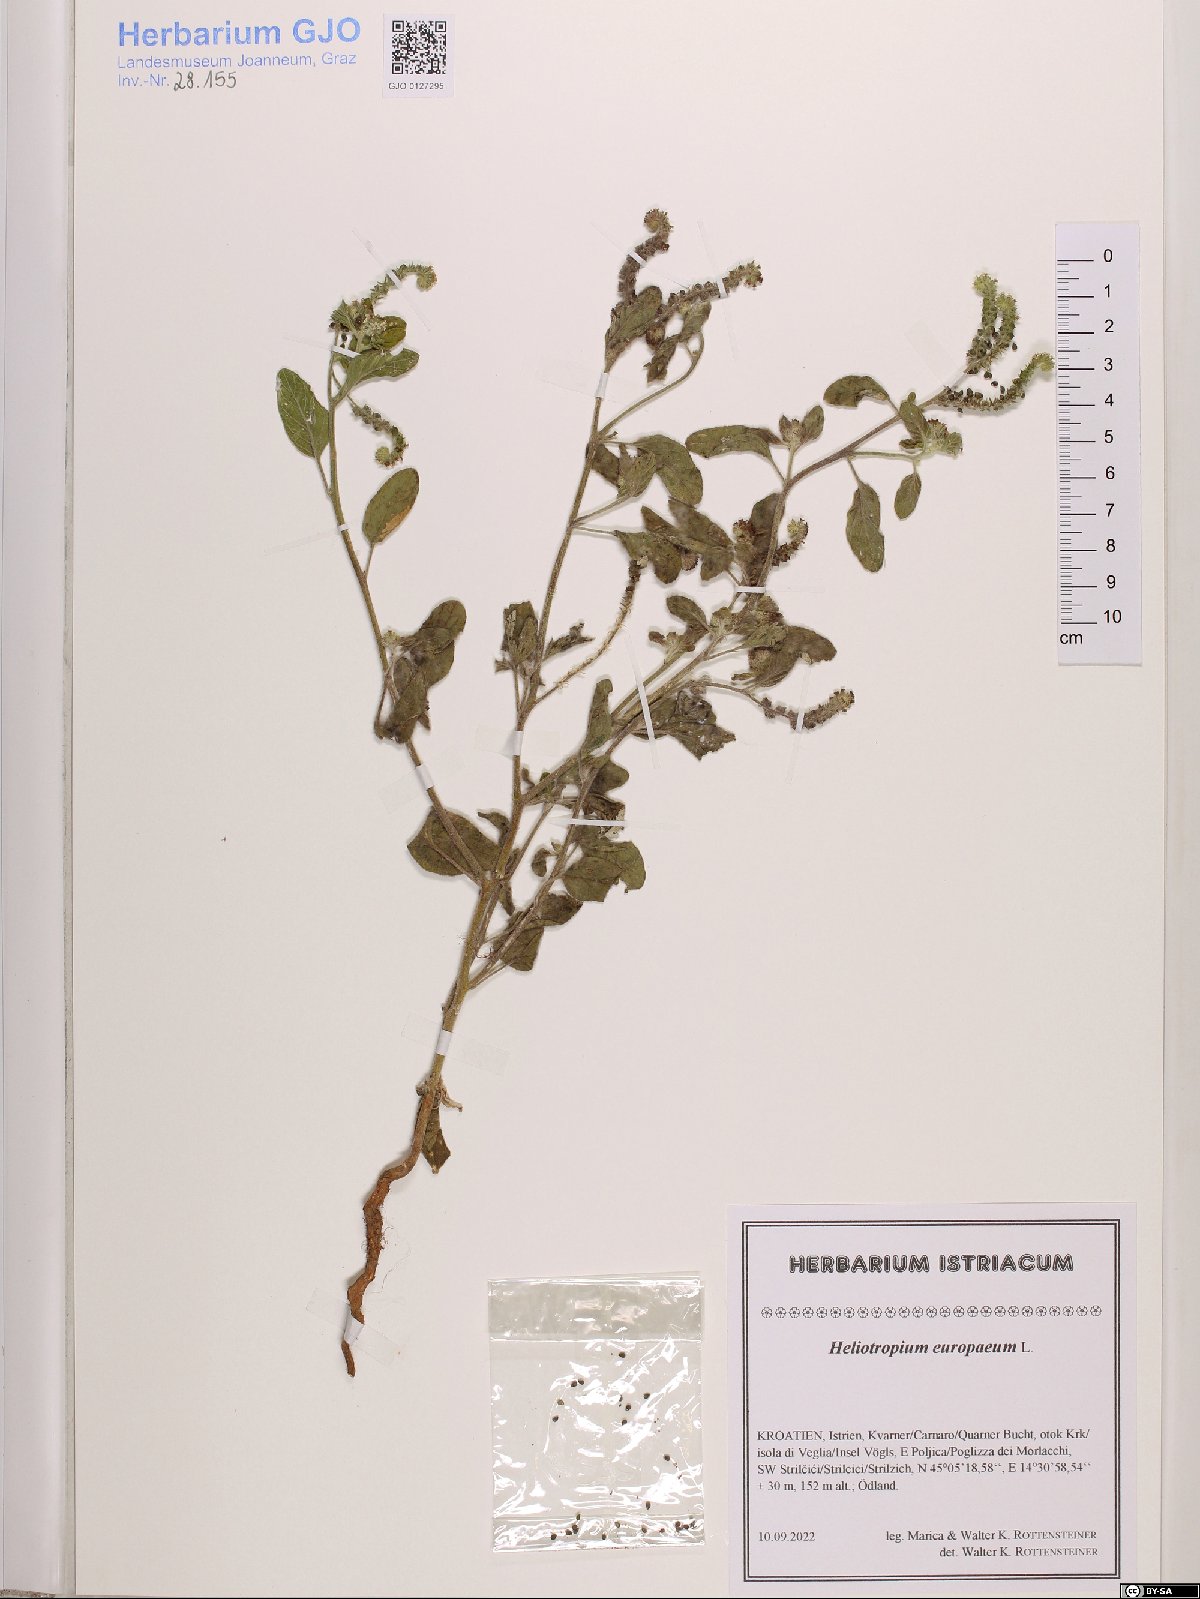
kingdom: Plantae
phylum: Tracheophyta
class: Magnoliopsida
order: Boraginales
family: Heliotropiaceae
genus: Heliotropium
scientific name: Heliotropium europaeum
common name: European heliotrope
